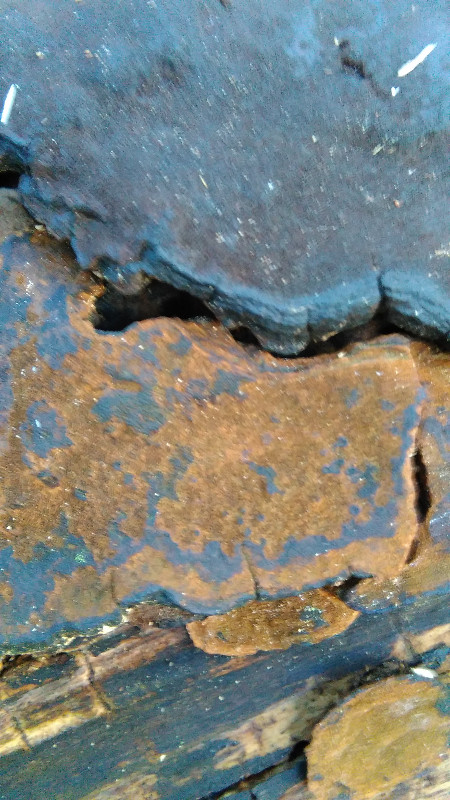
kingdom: Fungi
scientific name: Fungi
